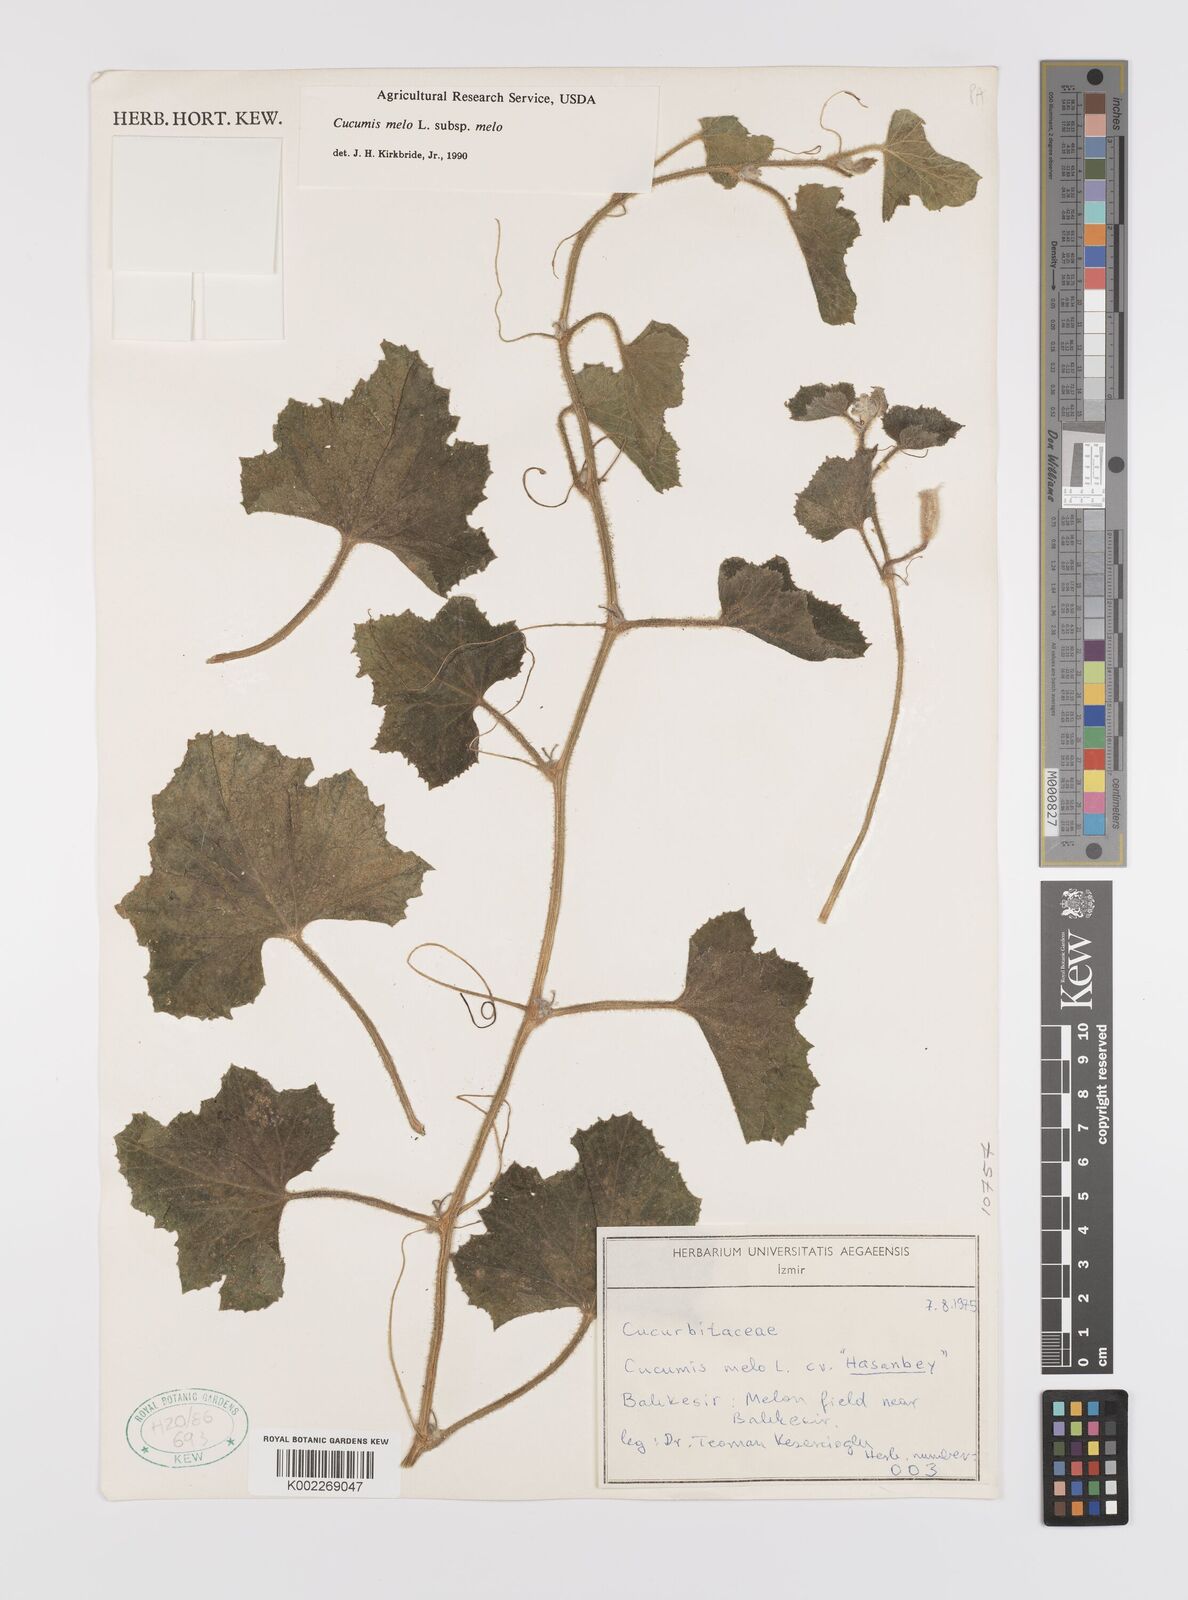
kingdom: Plantae
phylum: Tracheophyta
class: Magnoliopsida
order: Cucurbitales
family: Cucurbitaceae
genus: Cucumis
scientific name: Cucumis melo
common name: Melon
